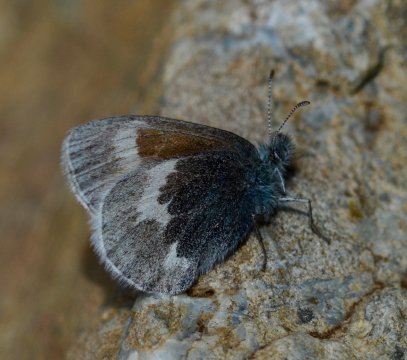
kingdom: Animalia
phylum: Arthropoda
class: Insecta
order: Lepidoptera
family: Nymphalidae
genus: Coenonympha
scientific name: Coenonympha tullia
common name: Large Heath
